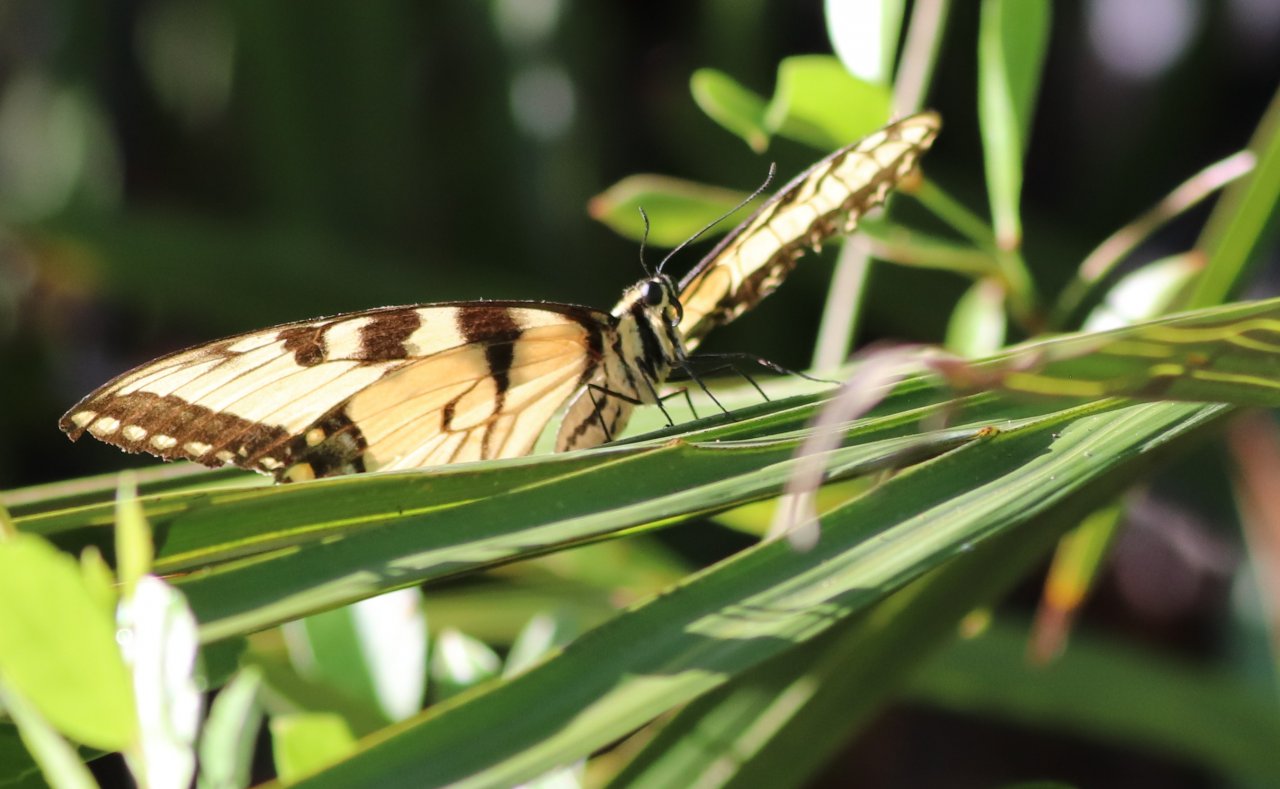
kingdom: Animalia
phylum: Arthropoda
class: Insecta
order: Lepidoptera
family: Papilionidae
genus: Pterourus
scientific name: Pterourus glaucus
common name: Eastern Tiger Swallowtail
